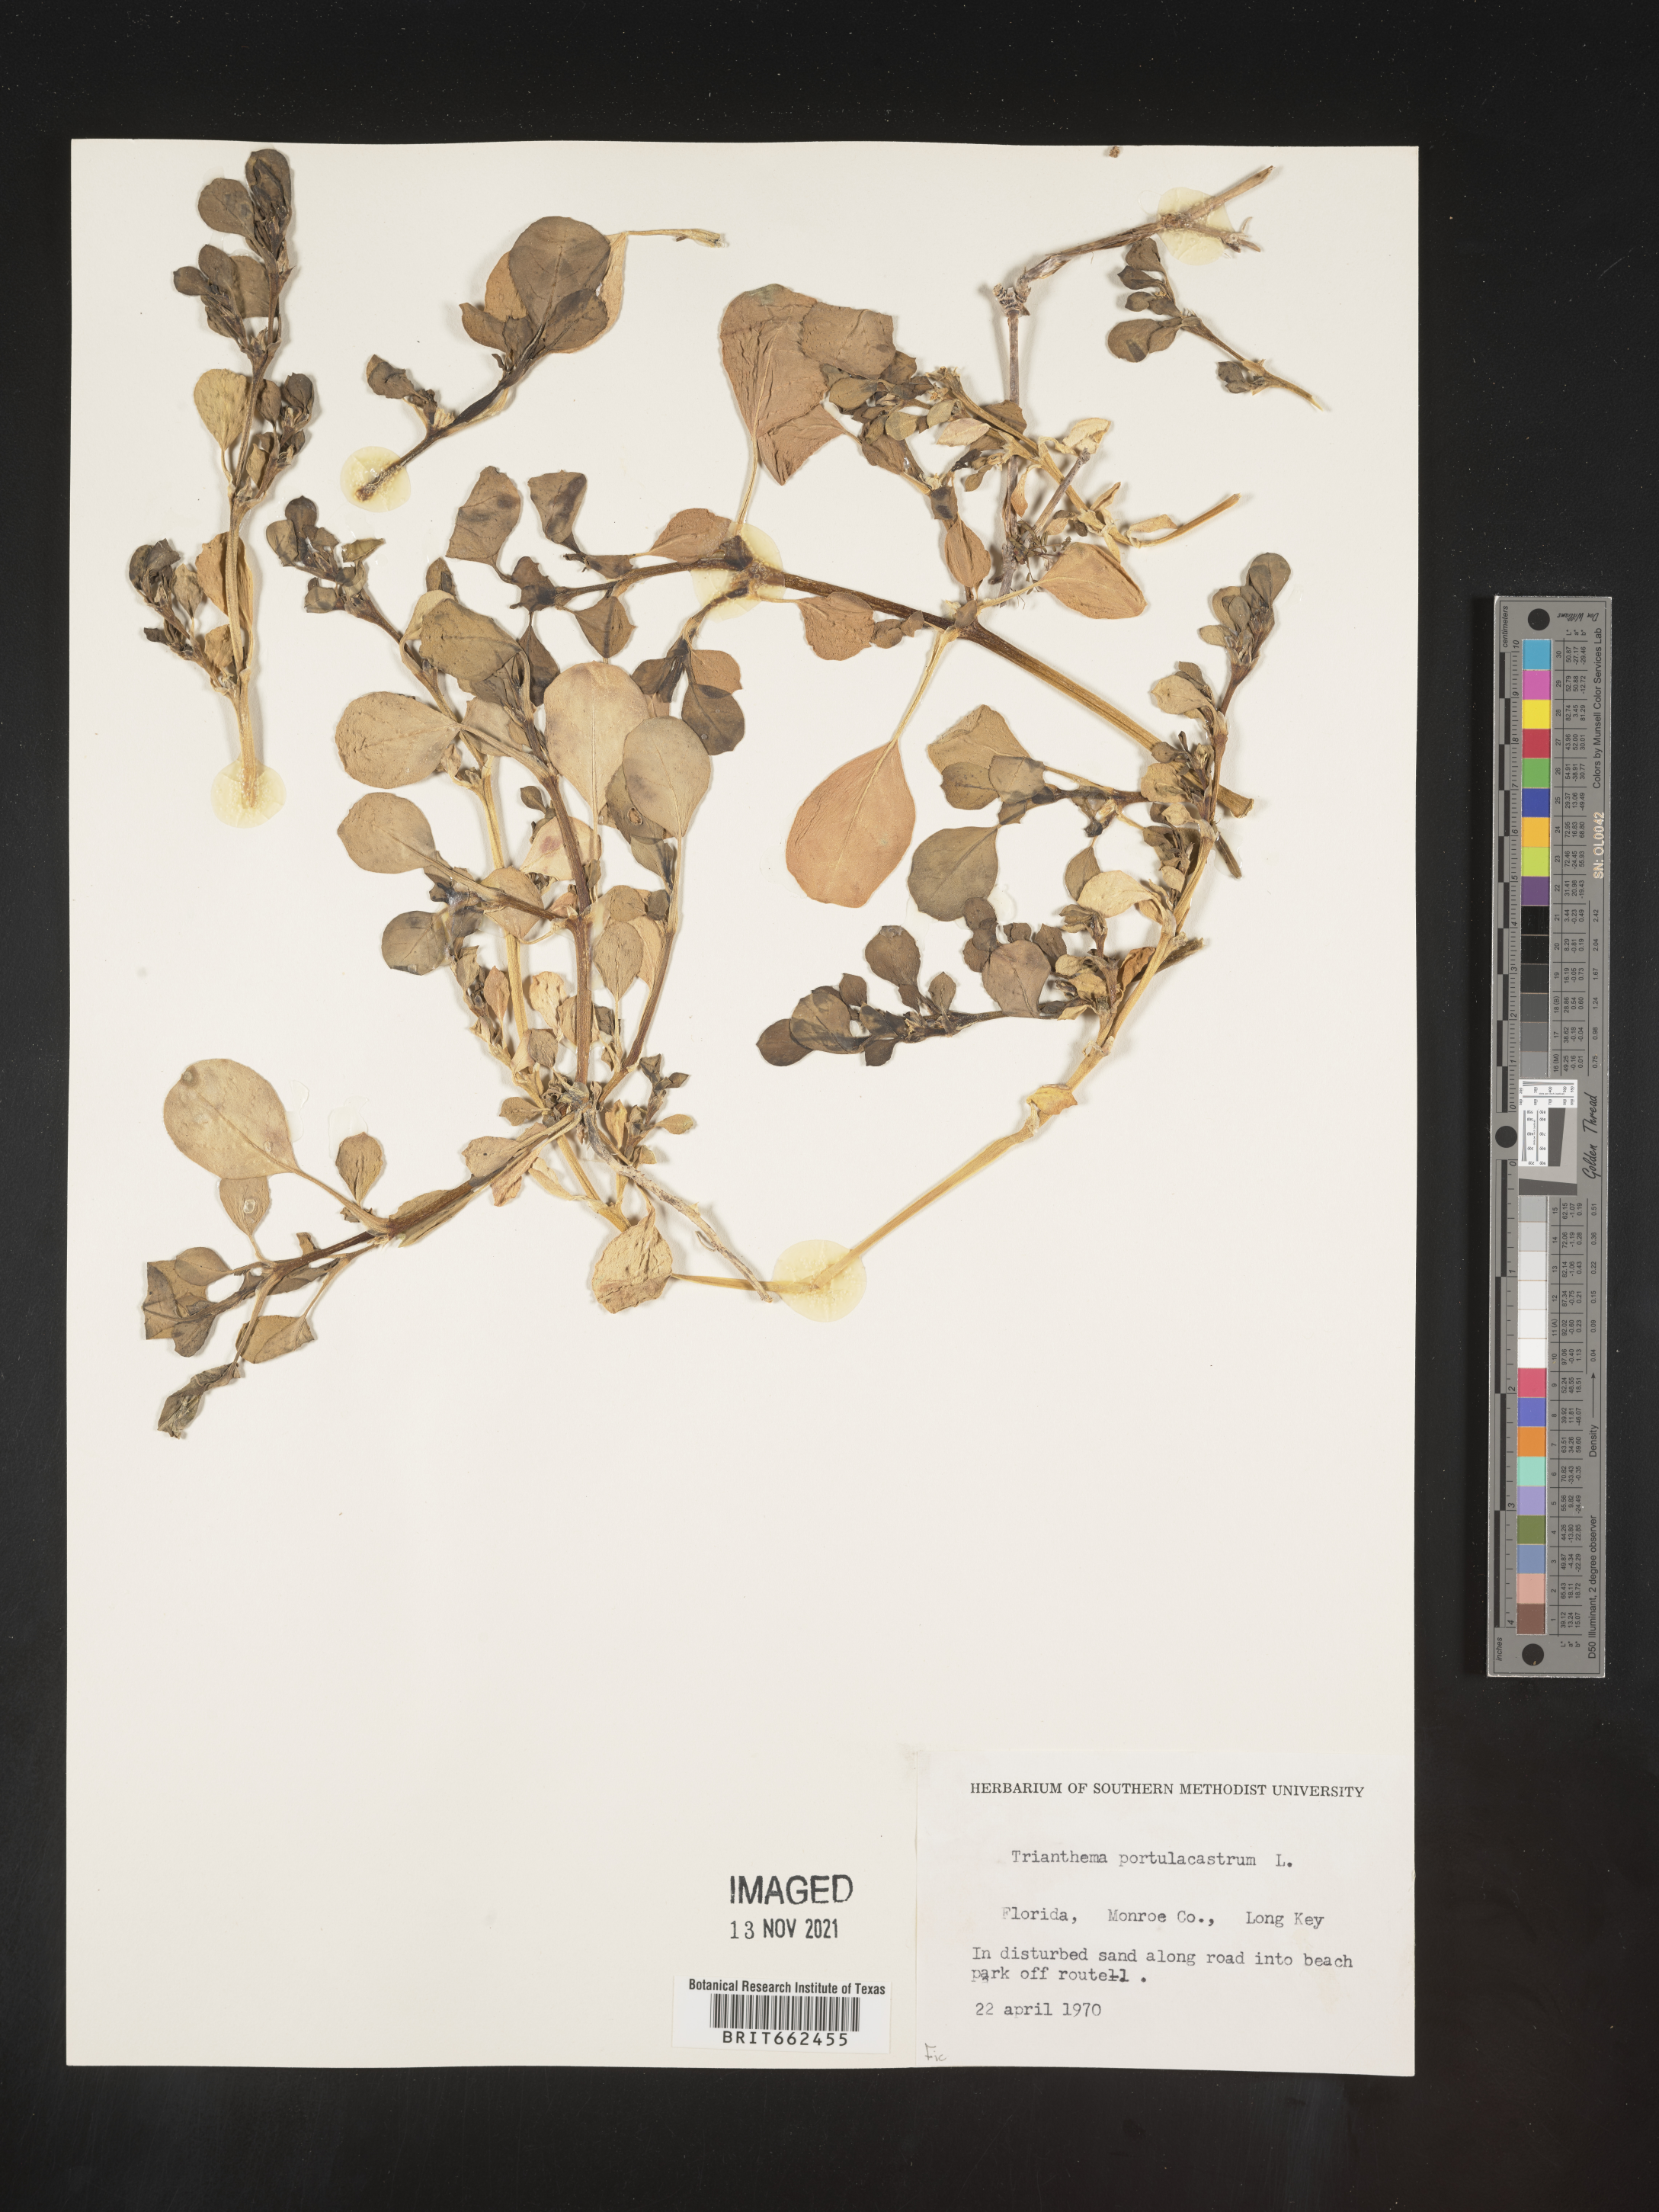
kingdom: Plantae
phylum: Tracheophyta
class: Magnoliopsida
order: Caryophyllales
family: Aizoaceae
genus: Trianthema
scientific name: Trianthema
